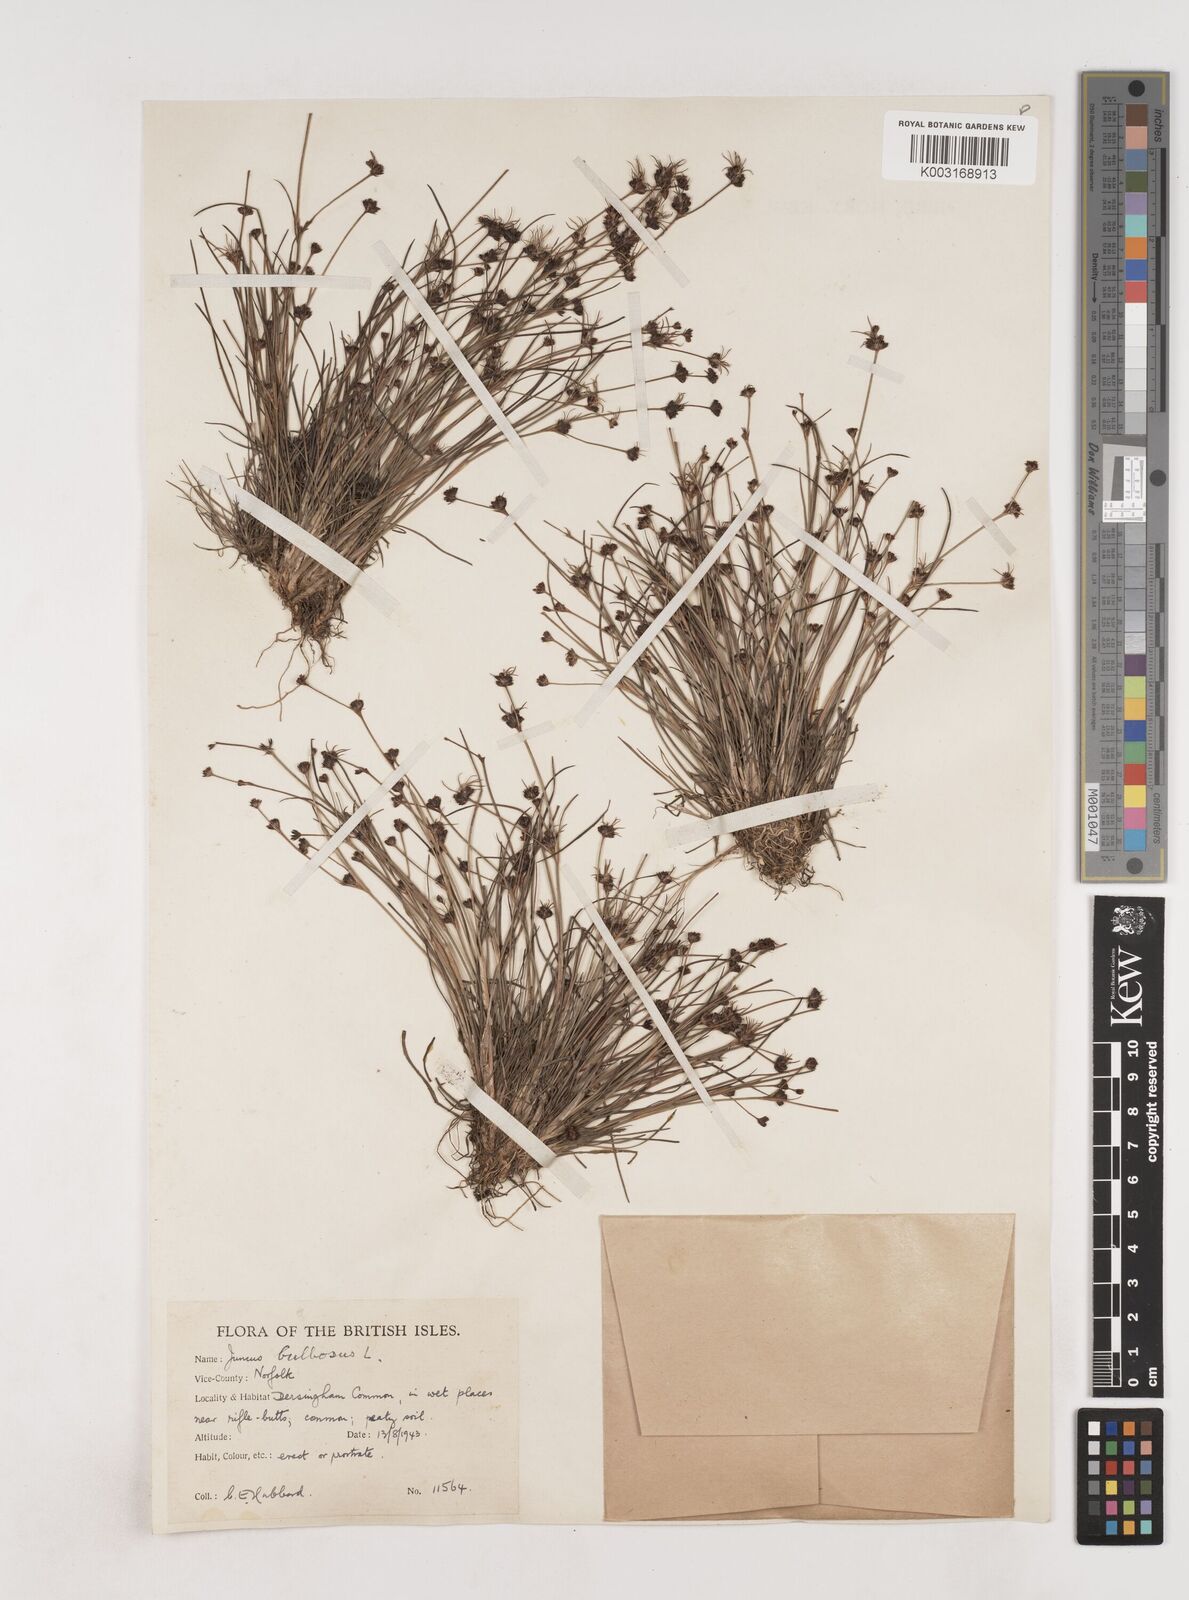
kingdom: Plantae
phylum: Tracheophyta
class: Liliopsida
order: Poales
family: Juncaceae
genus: Juncus
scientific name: Juncus bulbosus
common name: Bulbous rush
